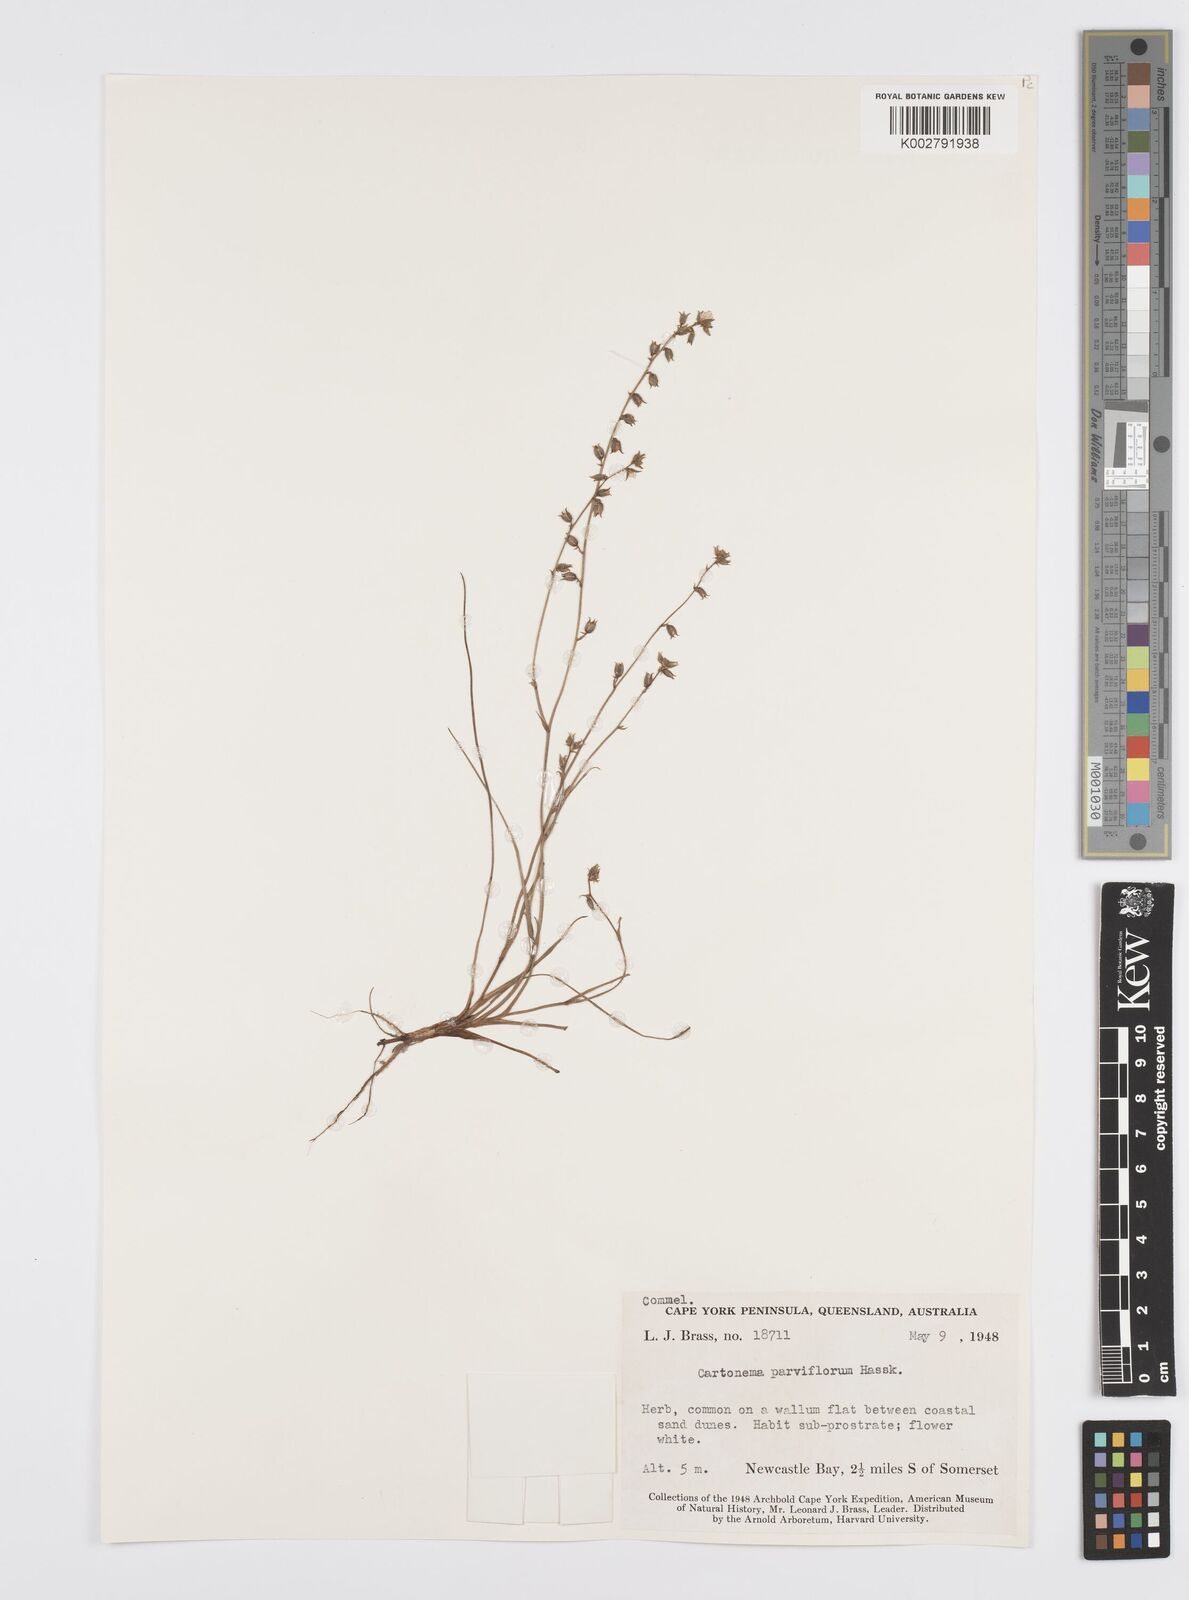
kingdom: Plantae
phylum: Tracheophyta
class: Liliopsida
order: Commelinales
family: Commelinaceae
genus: Cartonema
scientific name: Cartonema parviflorum
